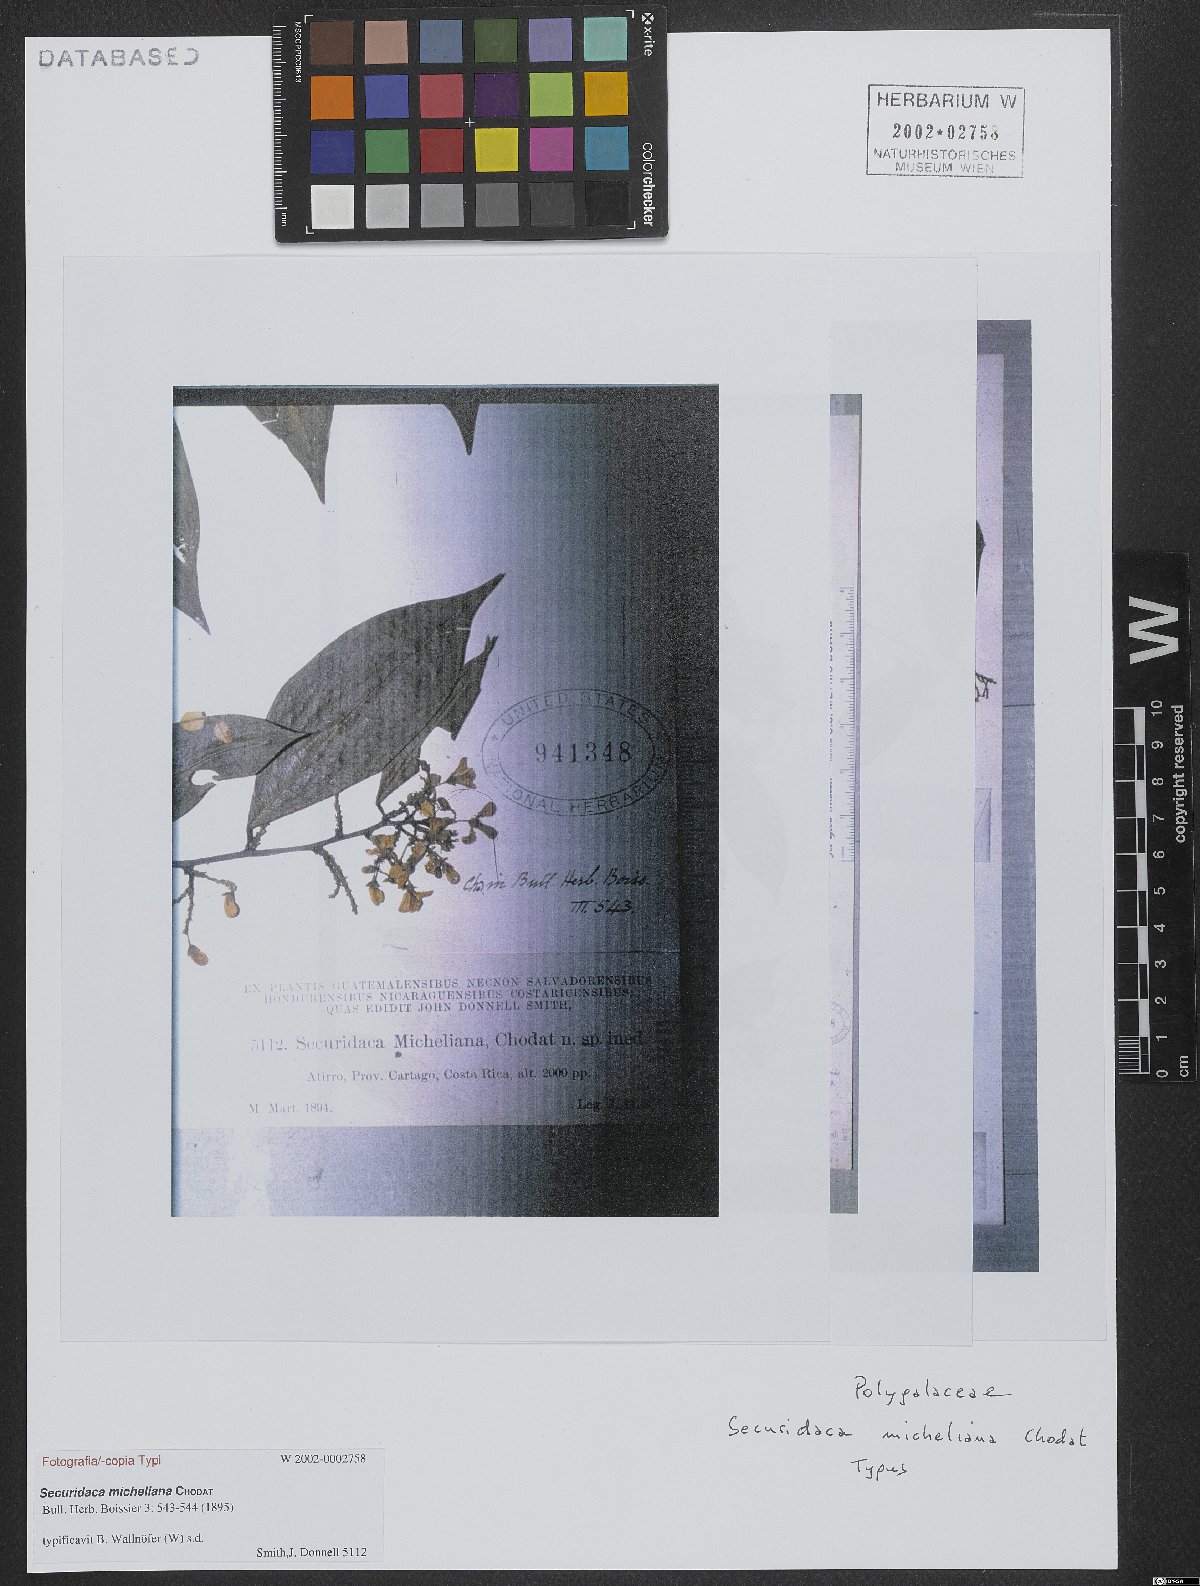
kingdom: Plantae
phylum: Tracheophyta
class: Magnoliopsida
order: Fabales
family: Polygalaceae
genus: Securidaca
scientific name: Securidaca micheliana
